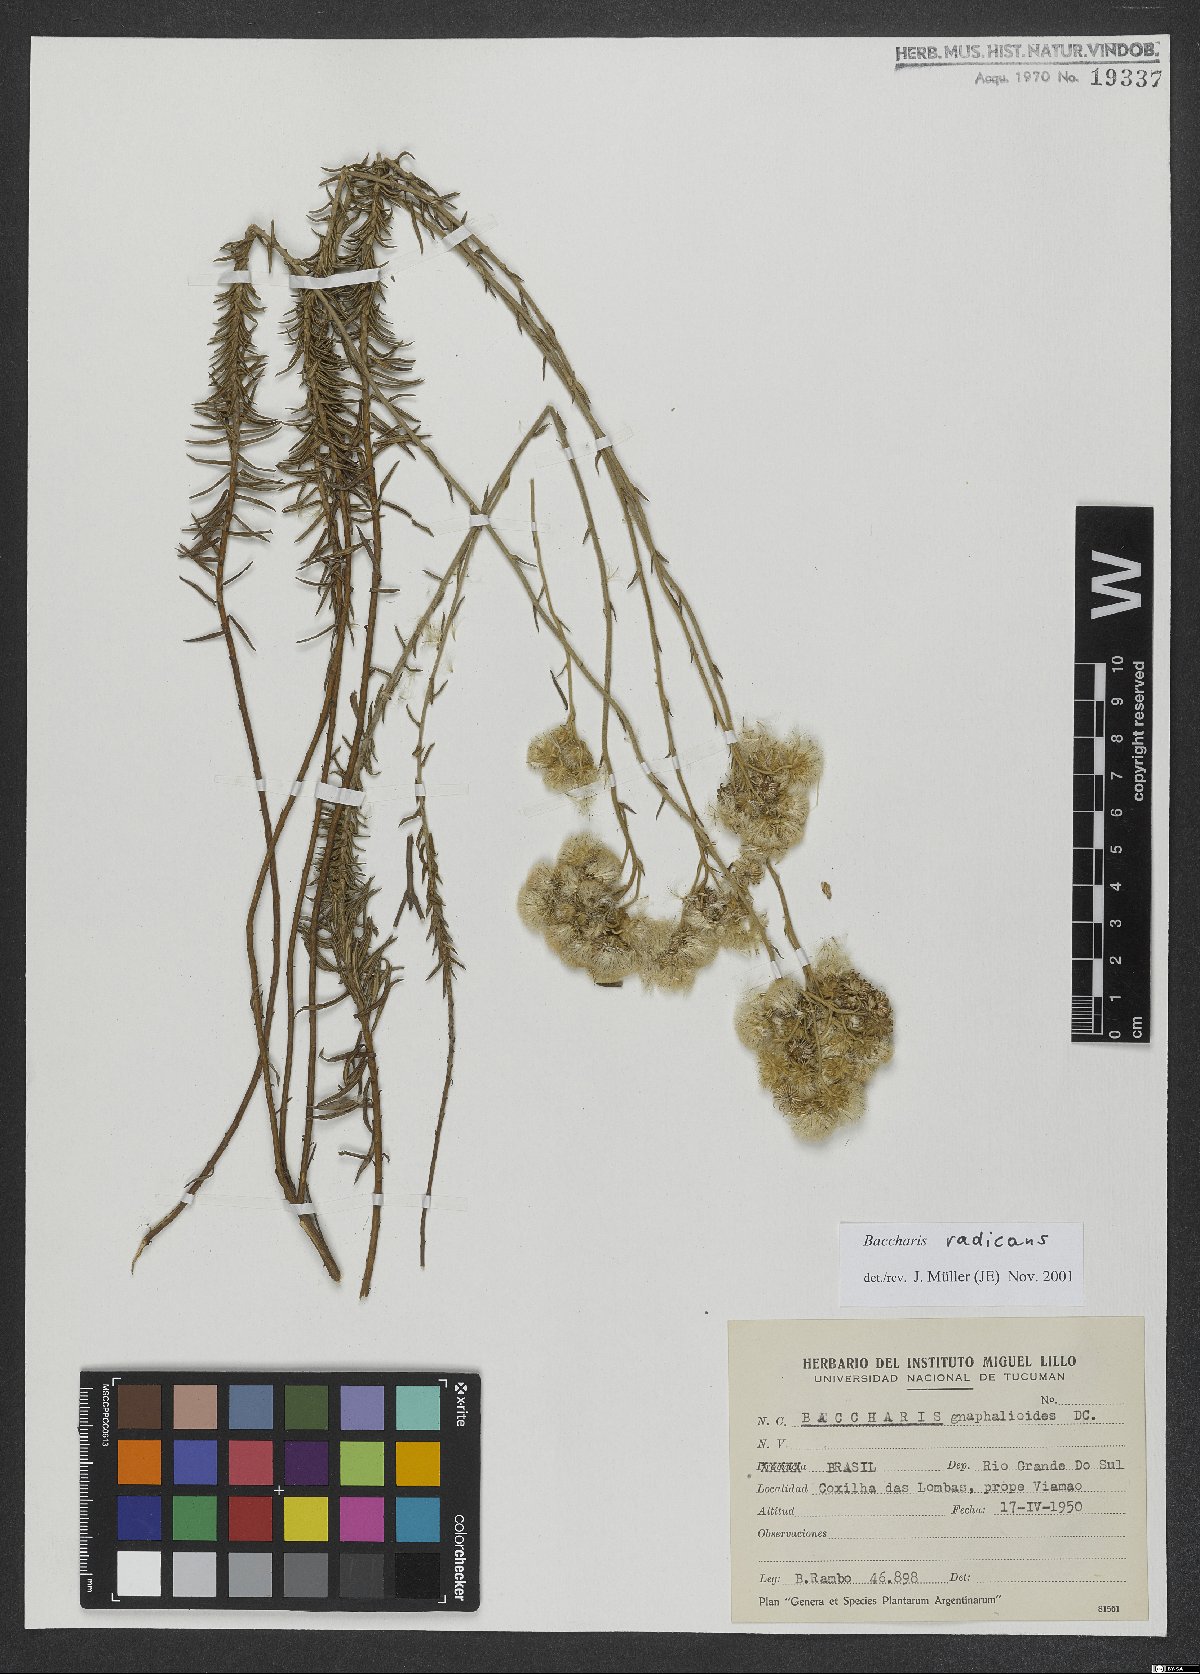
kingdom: Plantae
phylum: Tracheophyta
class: Magnoliopsida
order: Asterales
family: Asteraceae
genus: Baccharis
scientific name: Baccharis gnaphalioides
